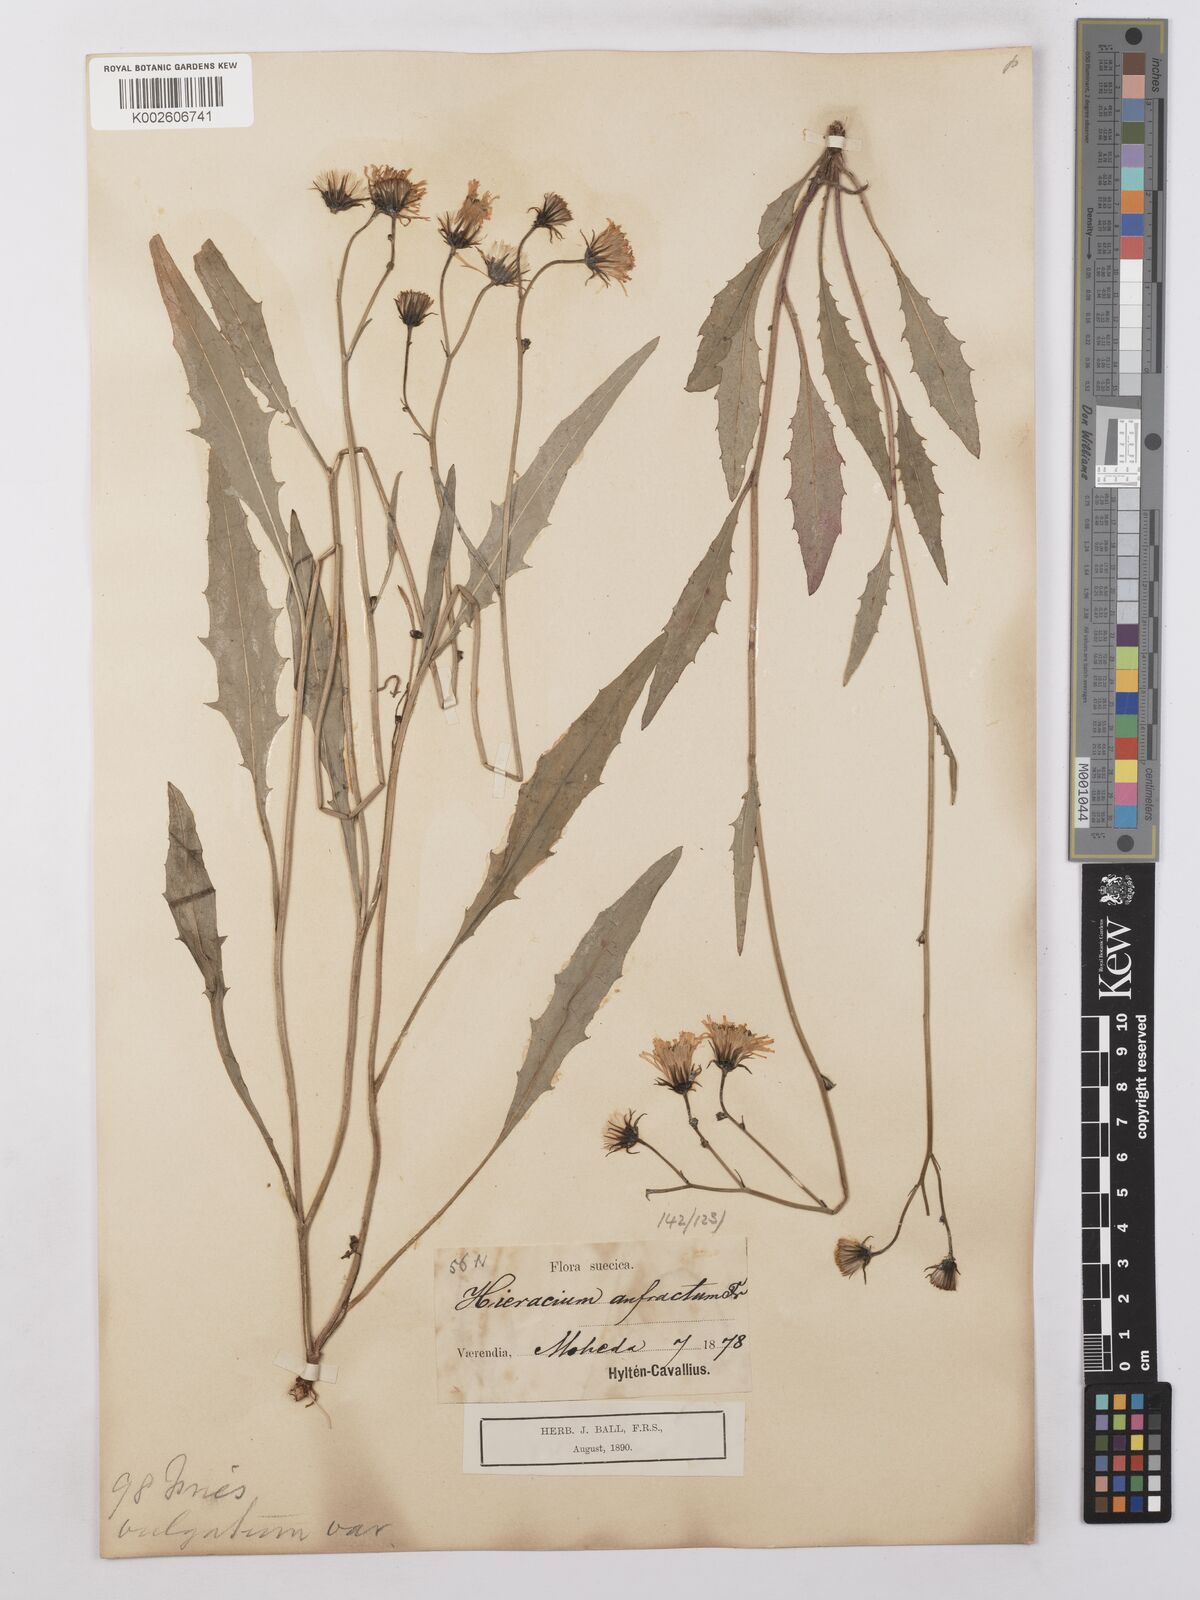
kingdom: Plantae
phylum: Tracheophyta
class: Magnoliopsida
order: Asterales
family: Asteraceae
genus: Hieracium
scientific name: Hieracium lachenalii
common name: Common hawkweed
